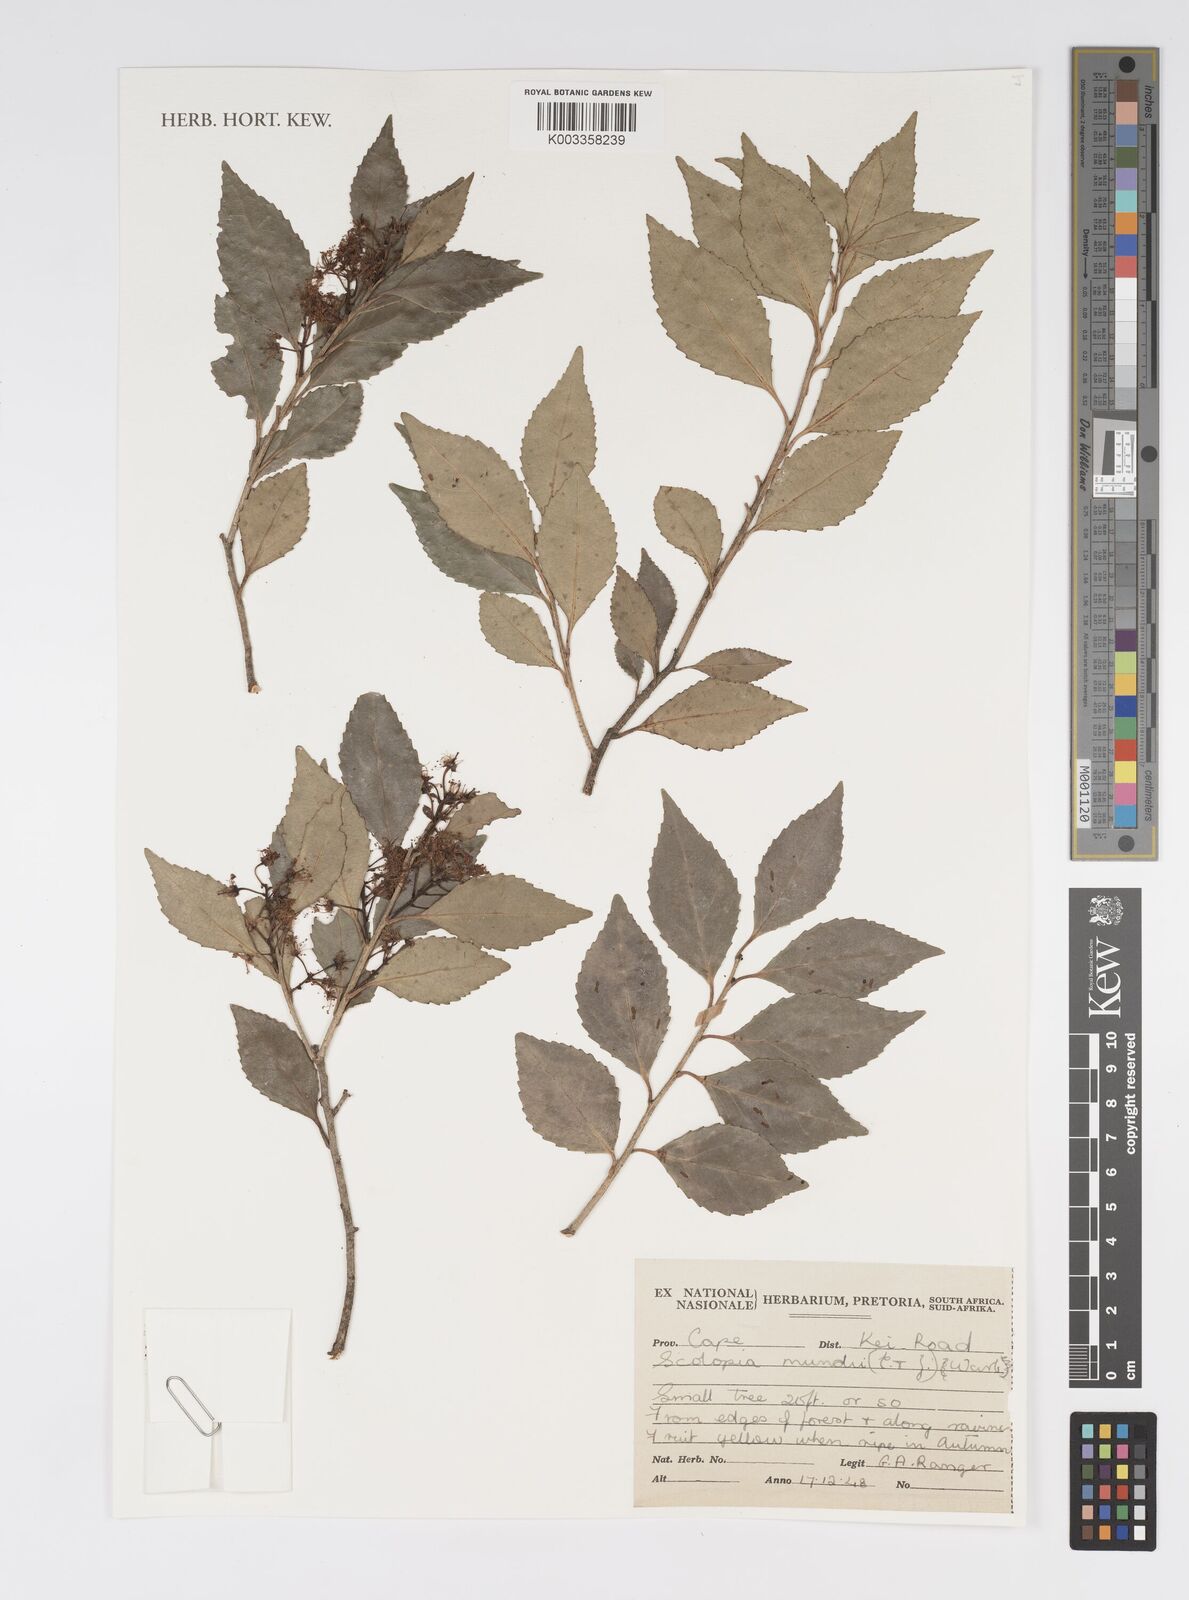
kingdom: Plantae
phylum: Tracheophyta
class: Magnoliopsida
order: Malpighiales
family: Salicaceae
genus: Scolopia
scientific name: Scolopia mundii
